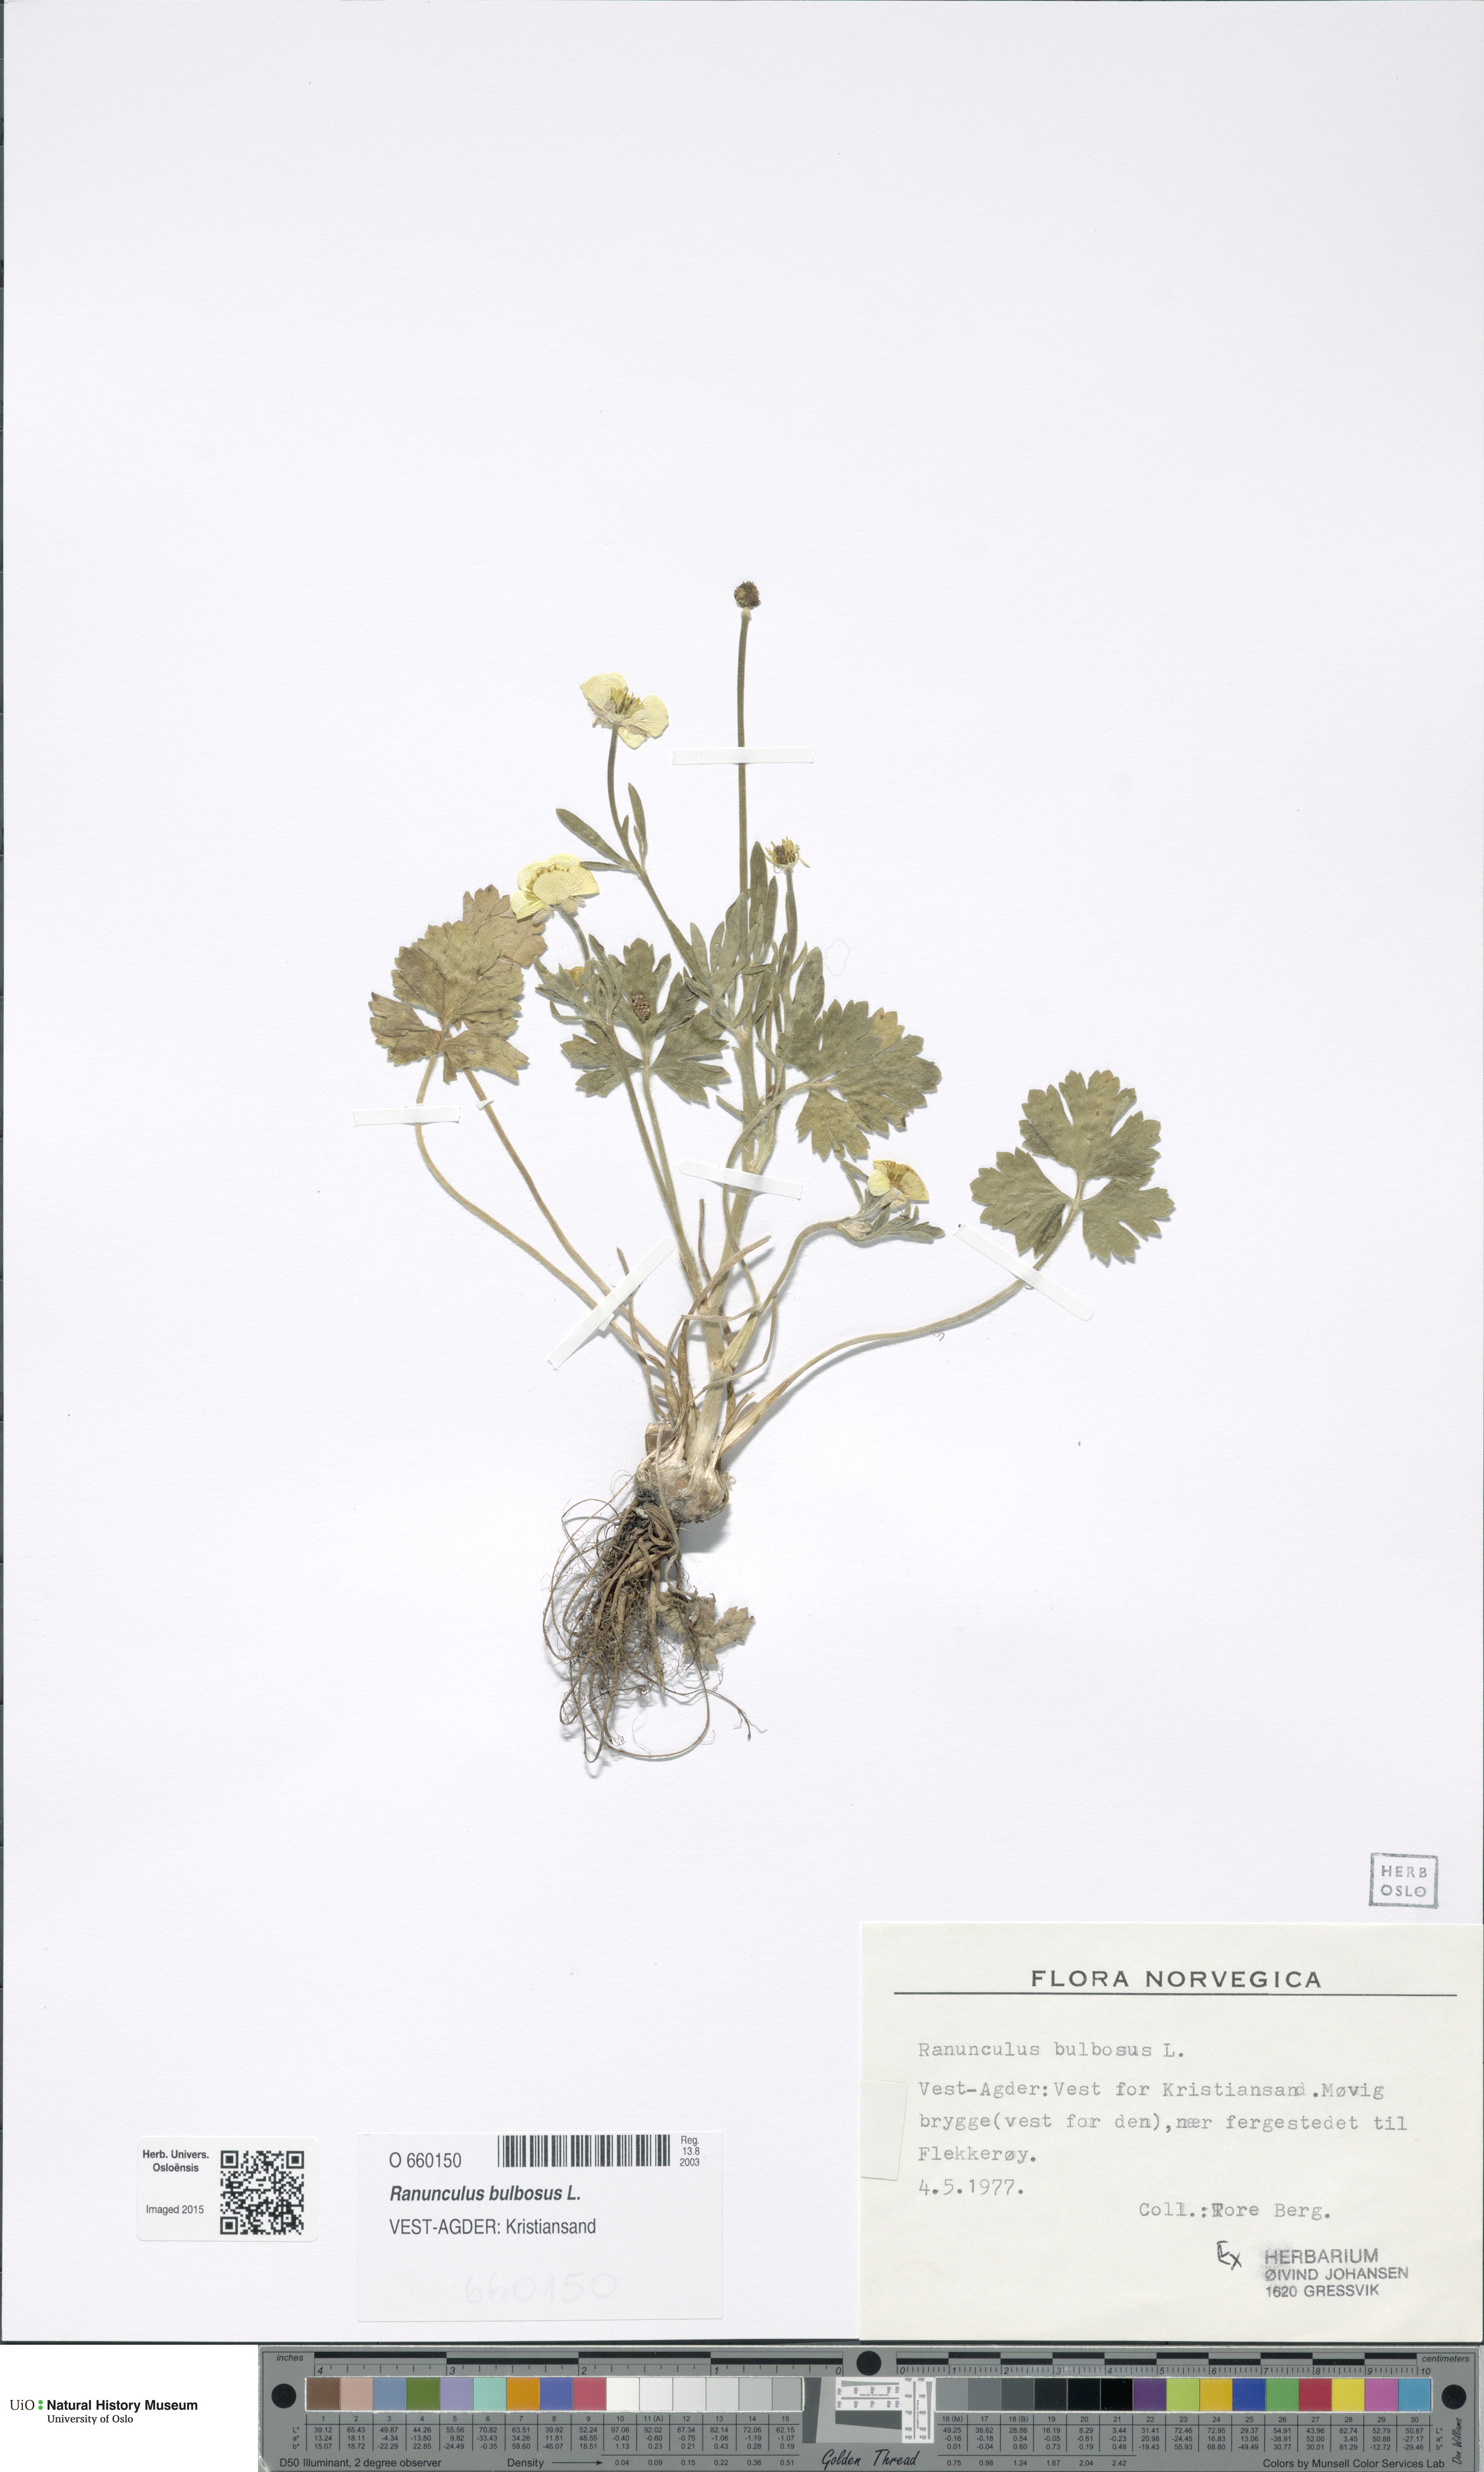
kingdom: Plantae
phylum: Tracheophyta
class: Magnoliopsida
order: Ranunculales
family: Ranunculaceae
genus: Ranunculus
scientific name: Ranunculus bulbosus
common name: Bulbous buttercup
